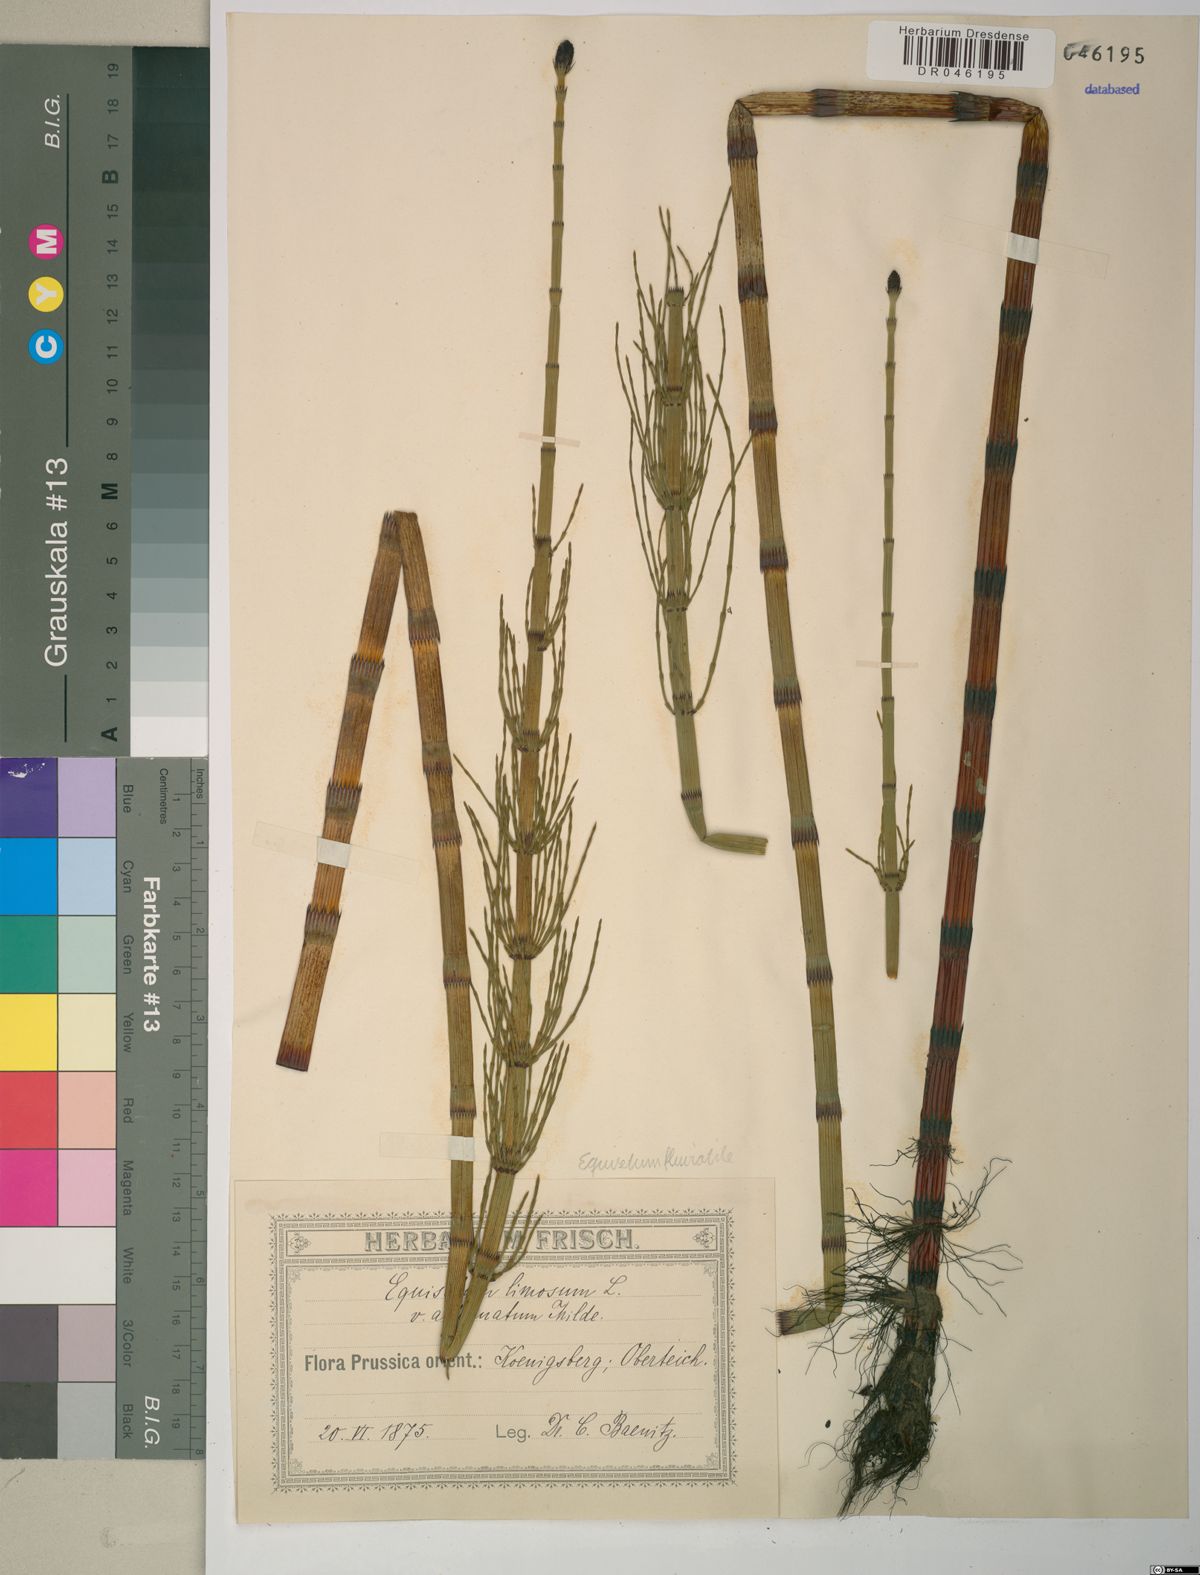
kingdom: Plantae
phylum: Tracheophyta
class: Polypodiopsida
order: Equisetales
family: Equisetaceae
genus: Equisetum
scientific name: Equisetum fluviatile
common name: Water horsetail
